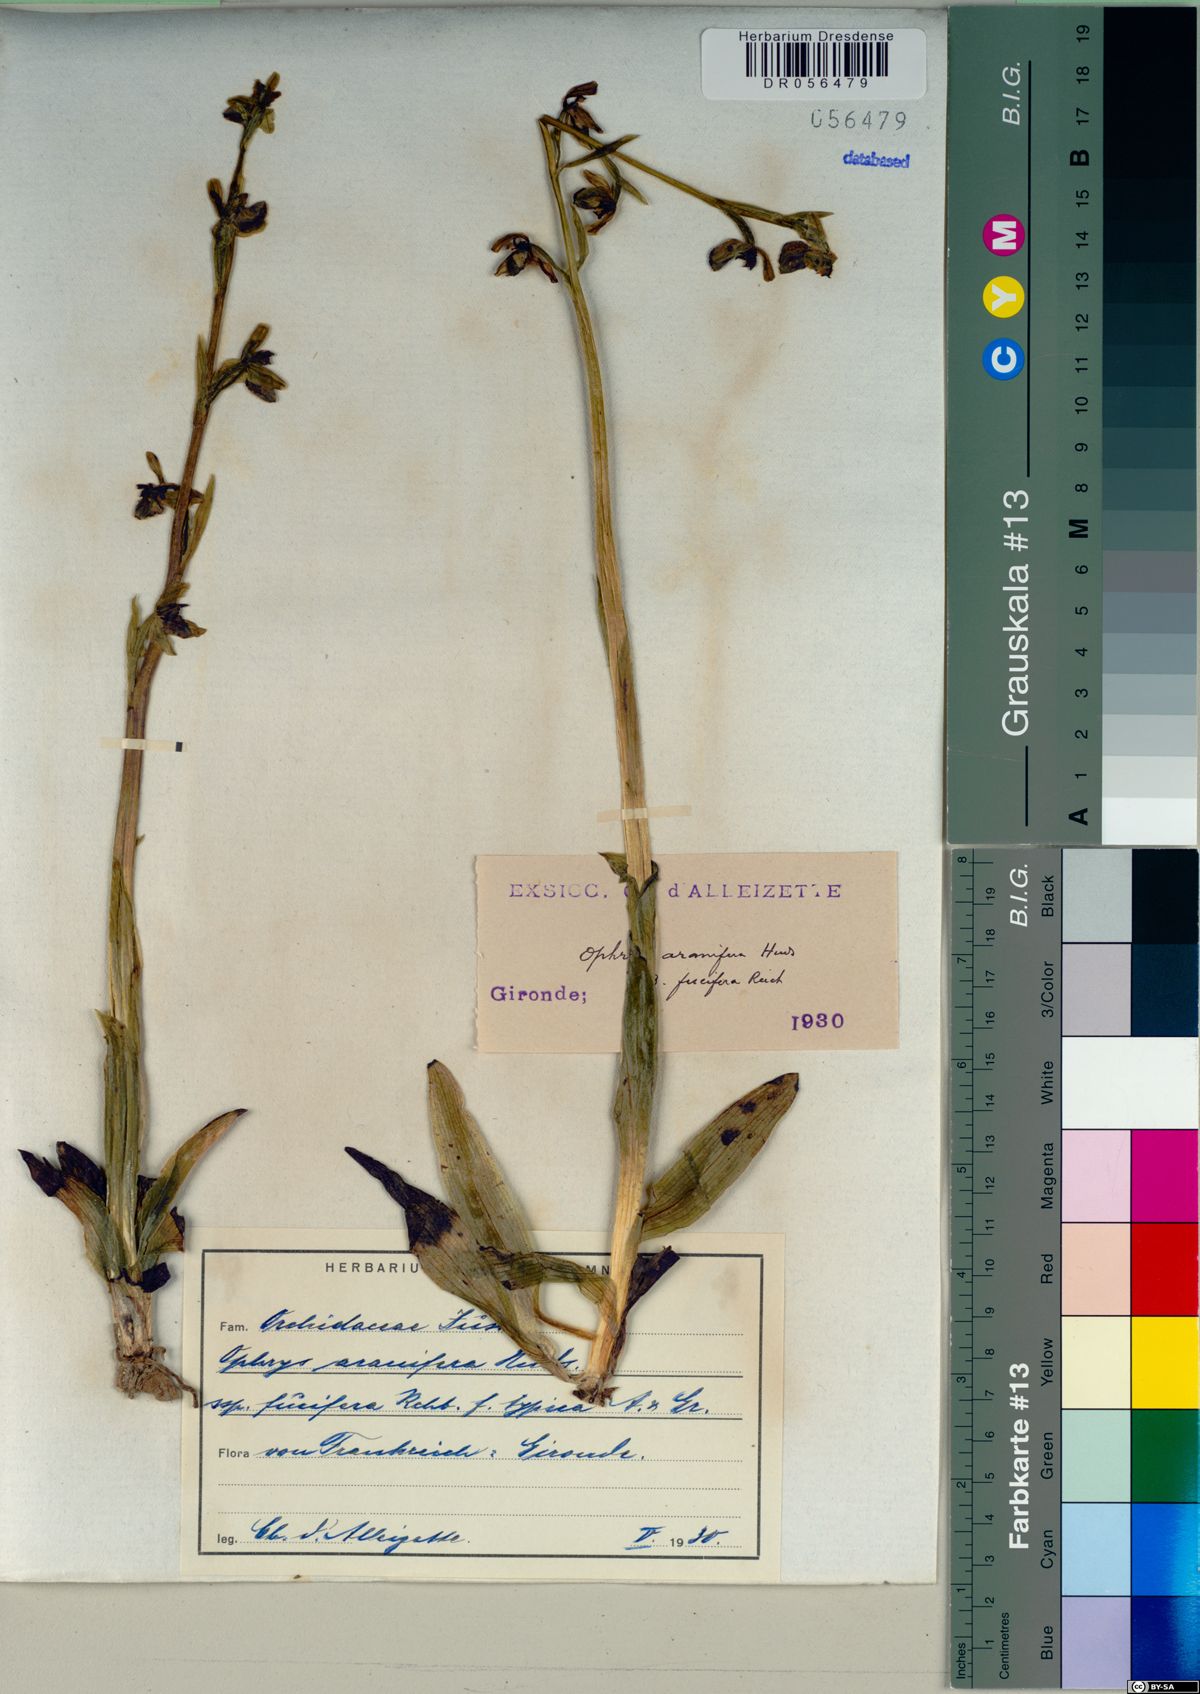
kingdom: Plantae
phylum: Tracheophyta
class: Liliopsida
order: Asparagales
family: Orchidaceae
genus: Ophrys
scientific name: Ophrys sphegodes
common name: Early spider-orchid
